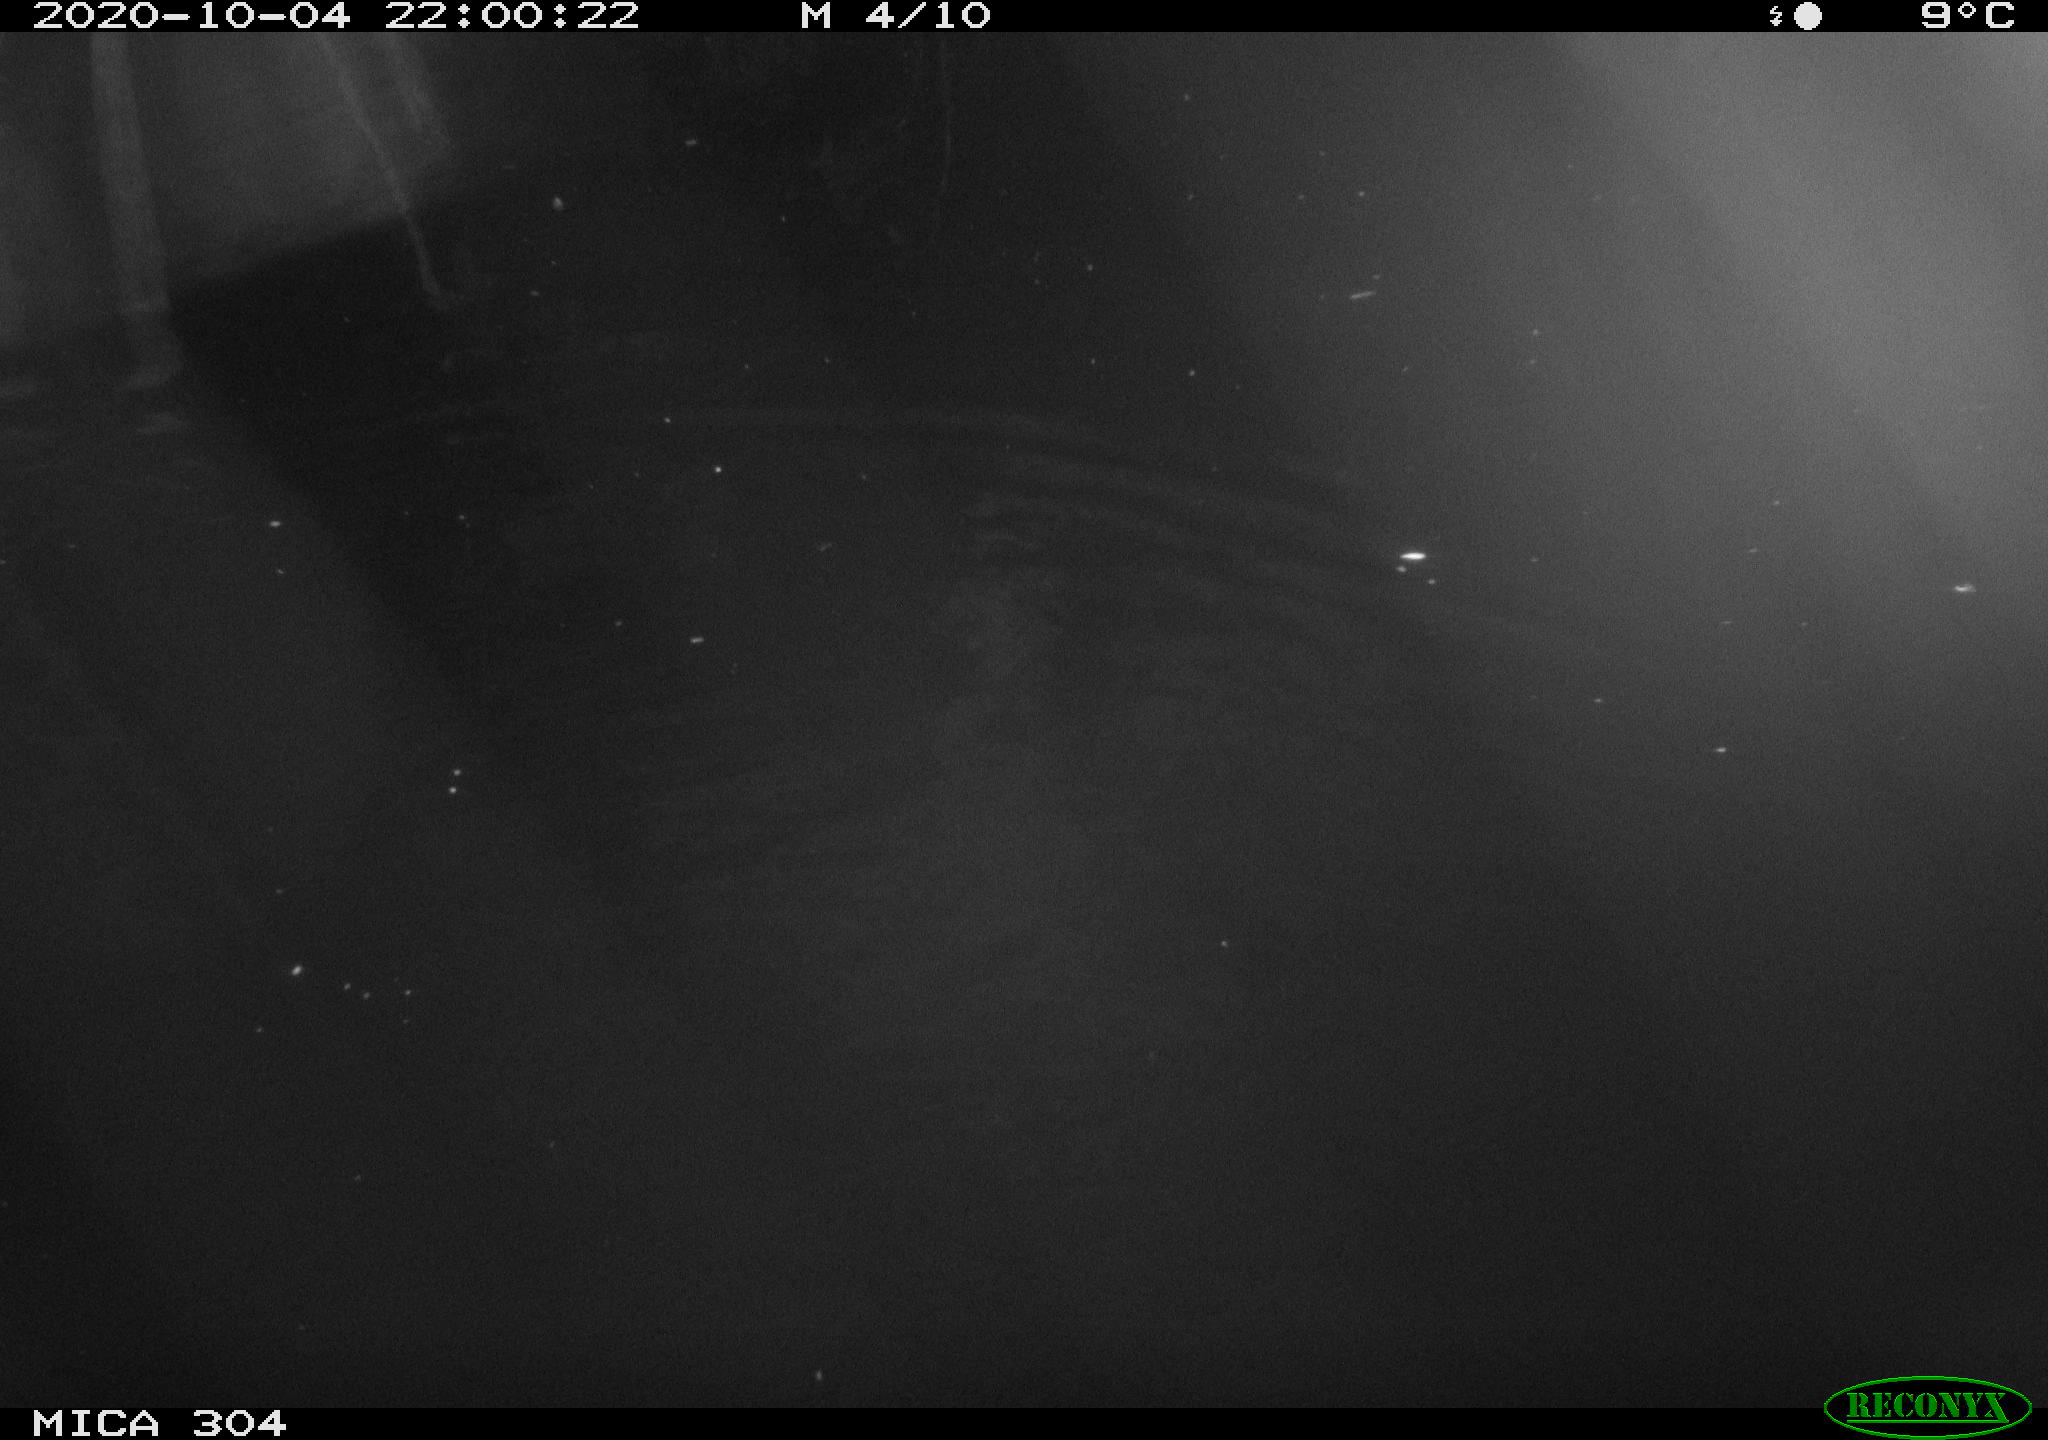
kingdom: Animalia
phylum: Chordata
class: Mammalia
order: Rodentia
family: Muridae
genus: Rattus
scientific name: Rattus norvegicus
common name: Brown rat
